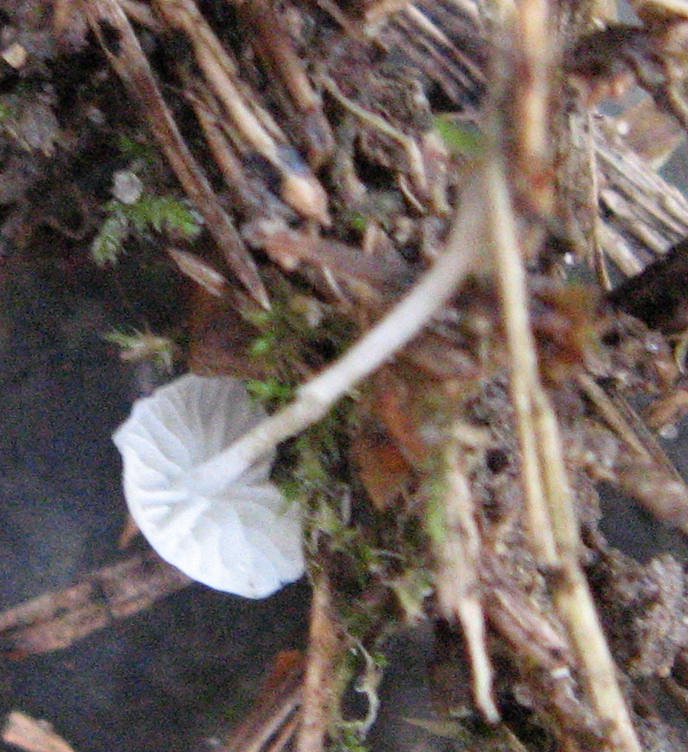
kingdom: Fungi
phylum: Basidiomycota
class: Agaricomycetes
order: Agaricales
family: Mycenaceae
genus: Hemimycena
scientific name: Hemimycena lactea
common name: mælkehvid huesvamp
